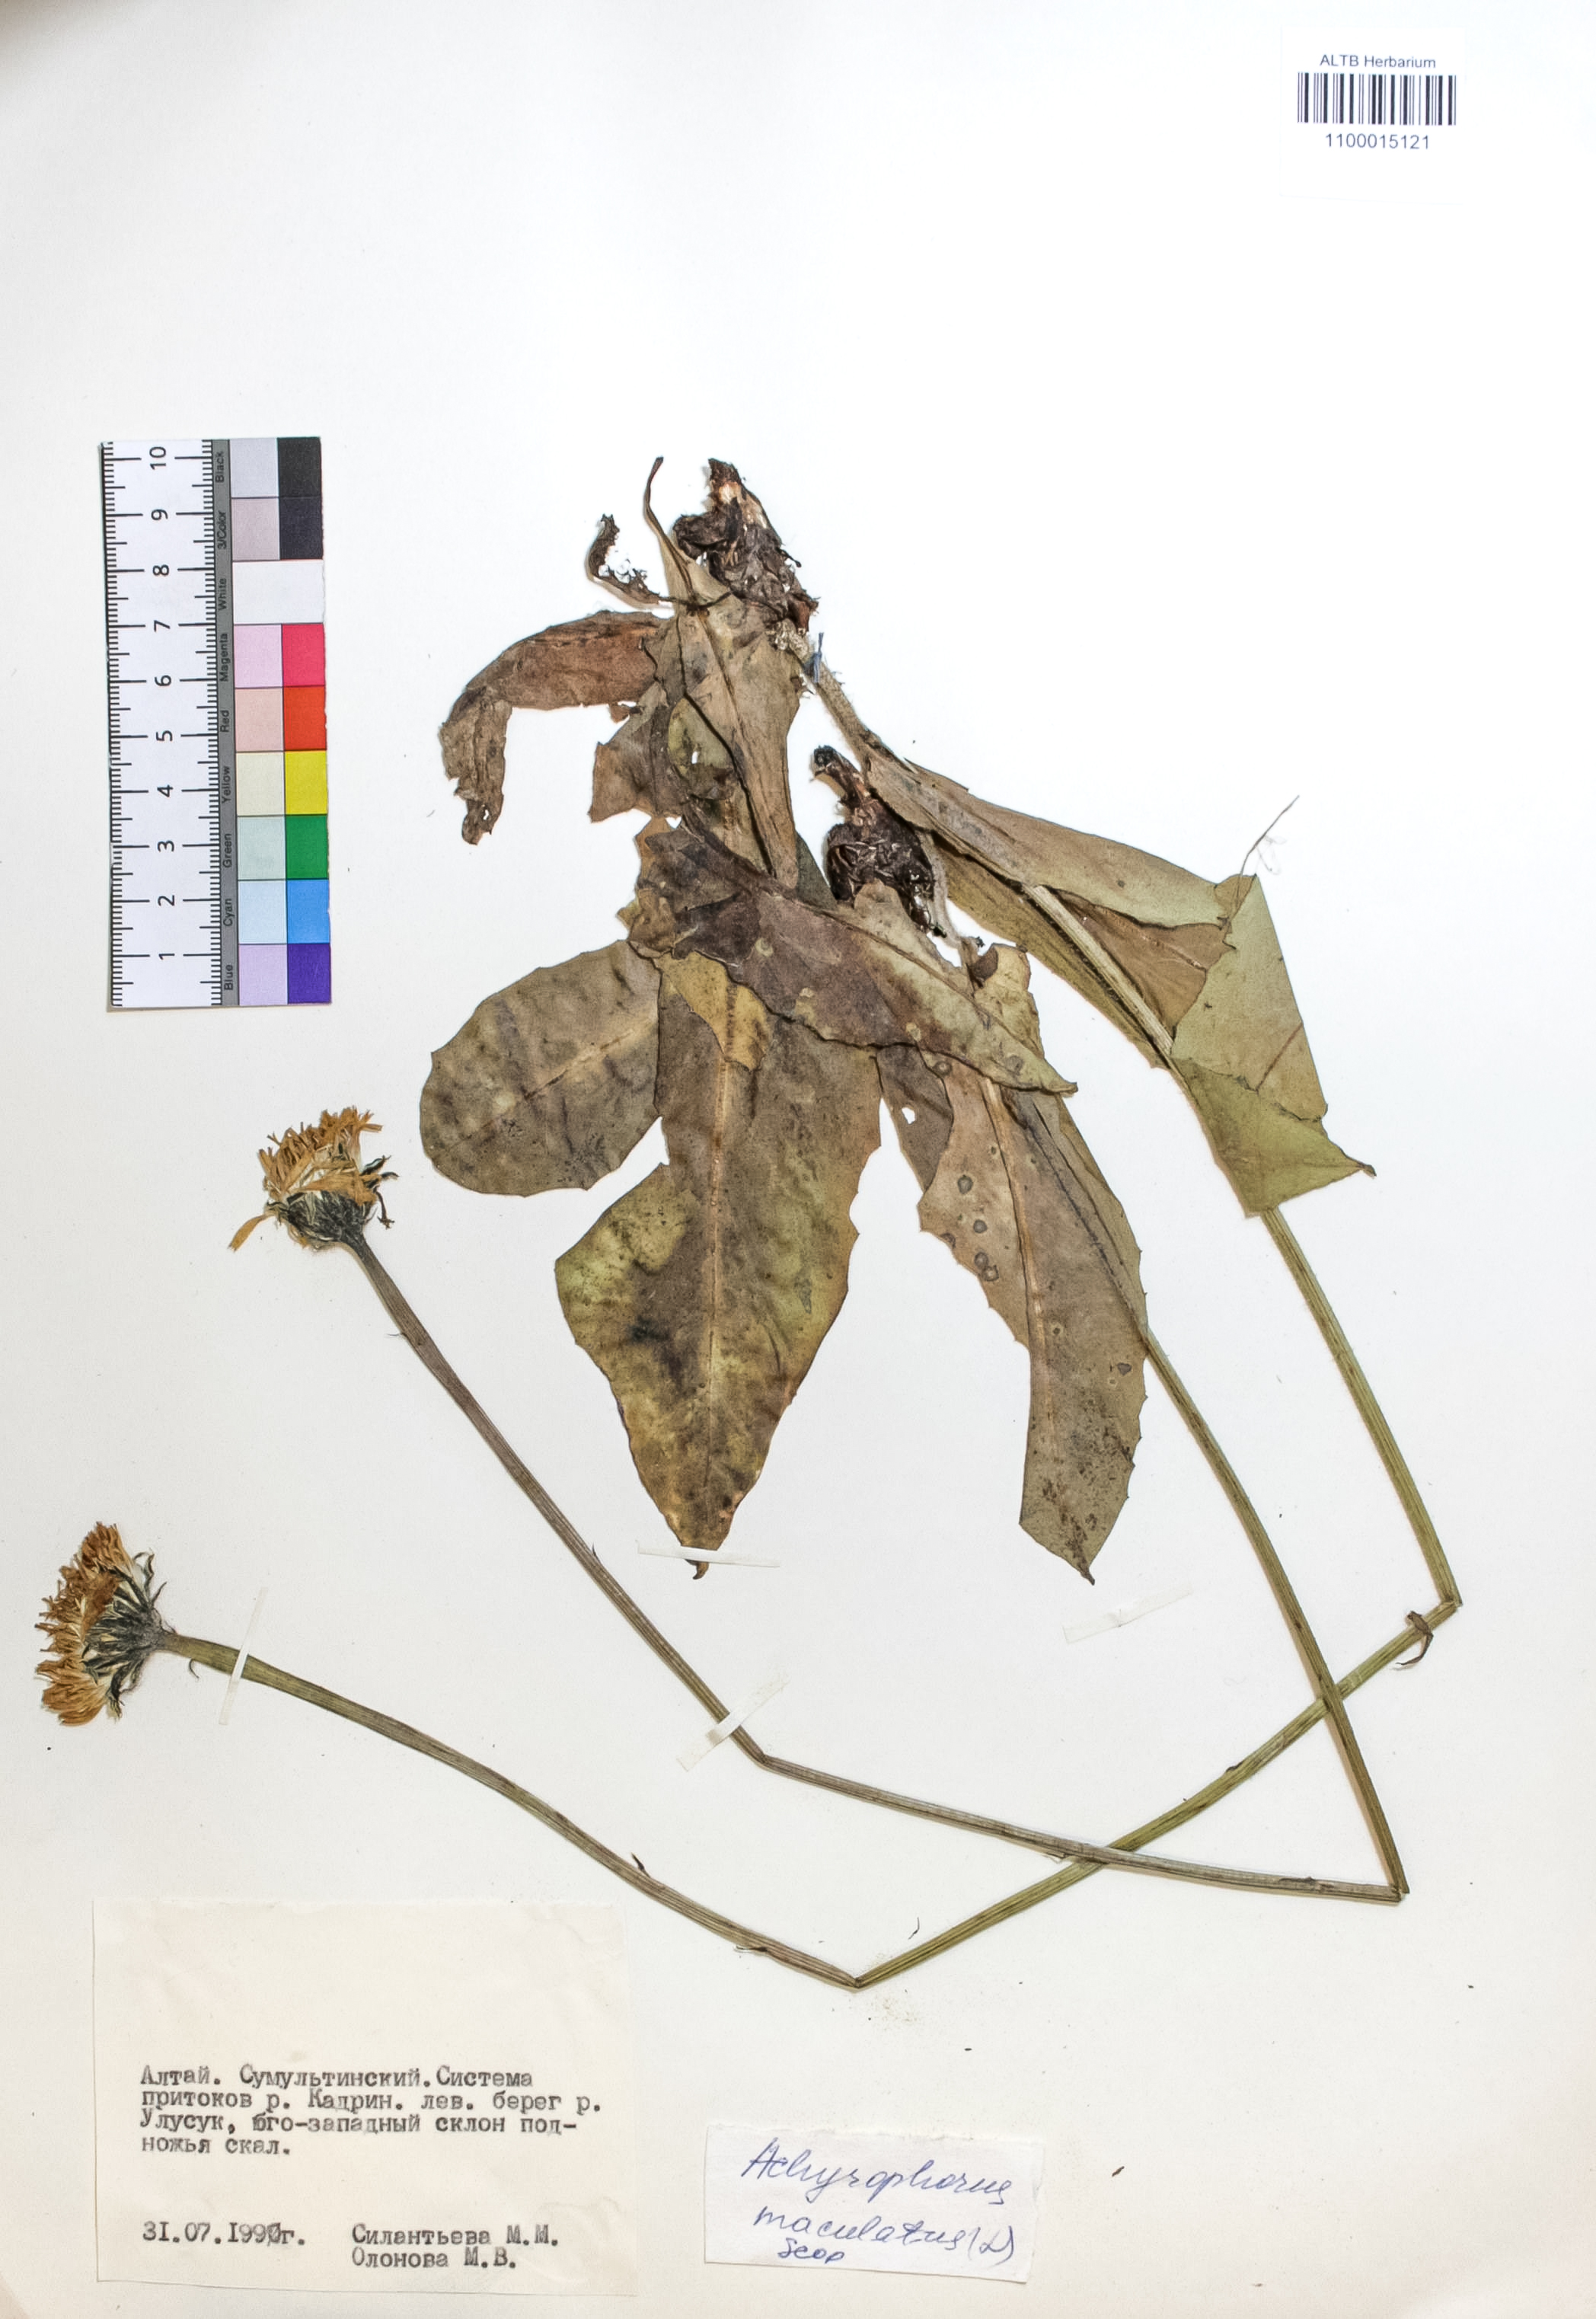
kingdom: Plantae
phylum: Tracheophyta
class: Magnoliopsida
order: Asterales
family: Asteraceae
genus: Trommsdorffia
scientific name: Trommsdorffia maculata
